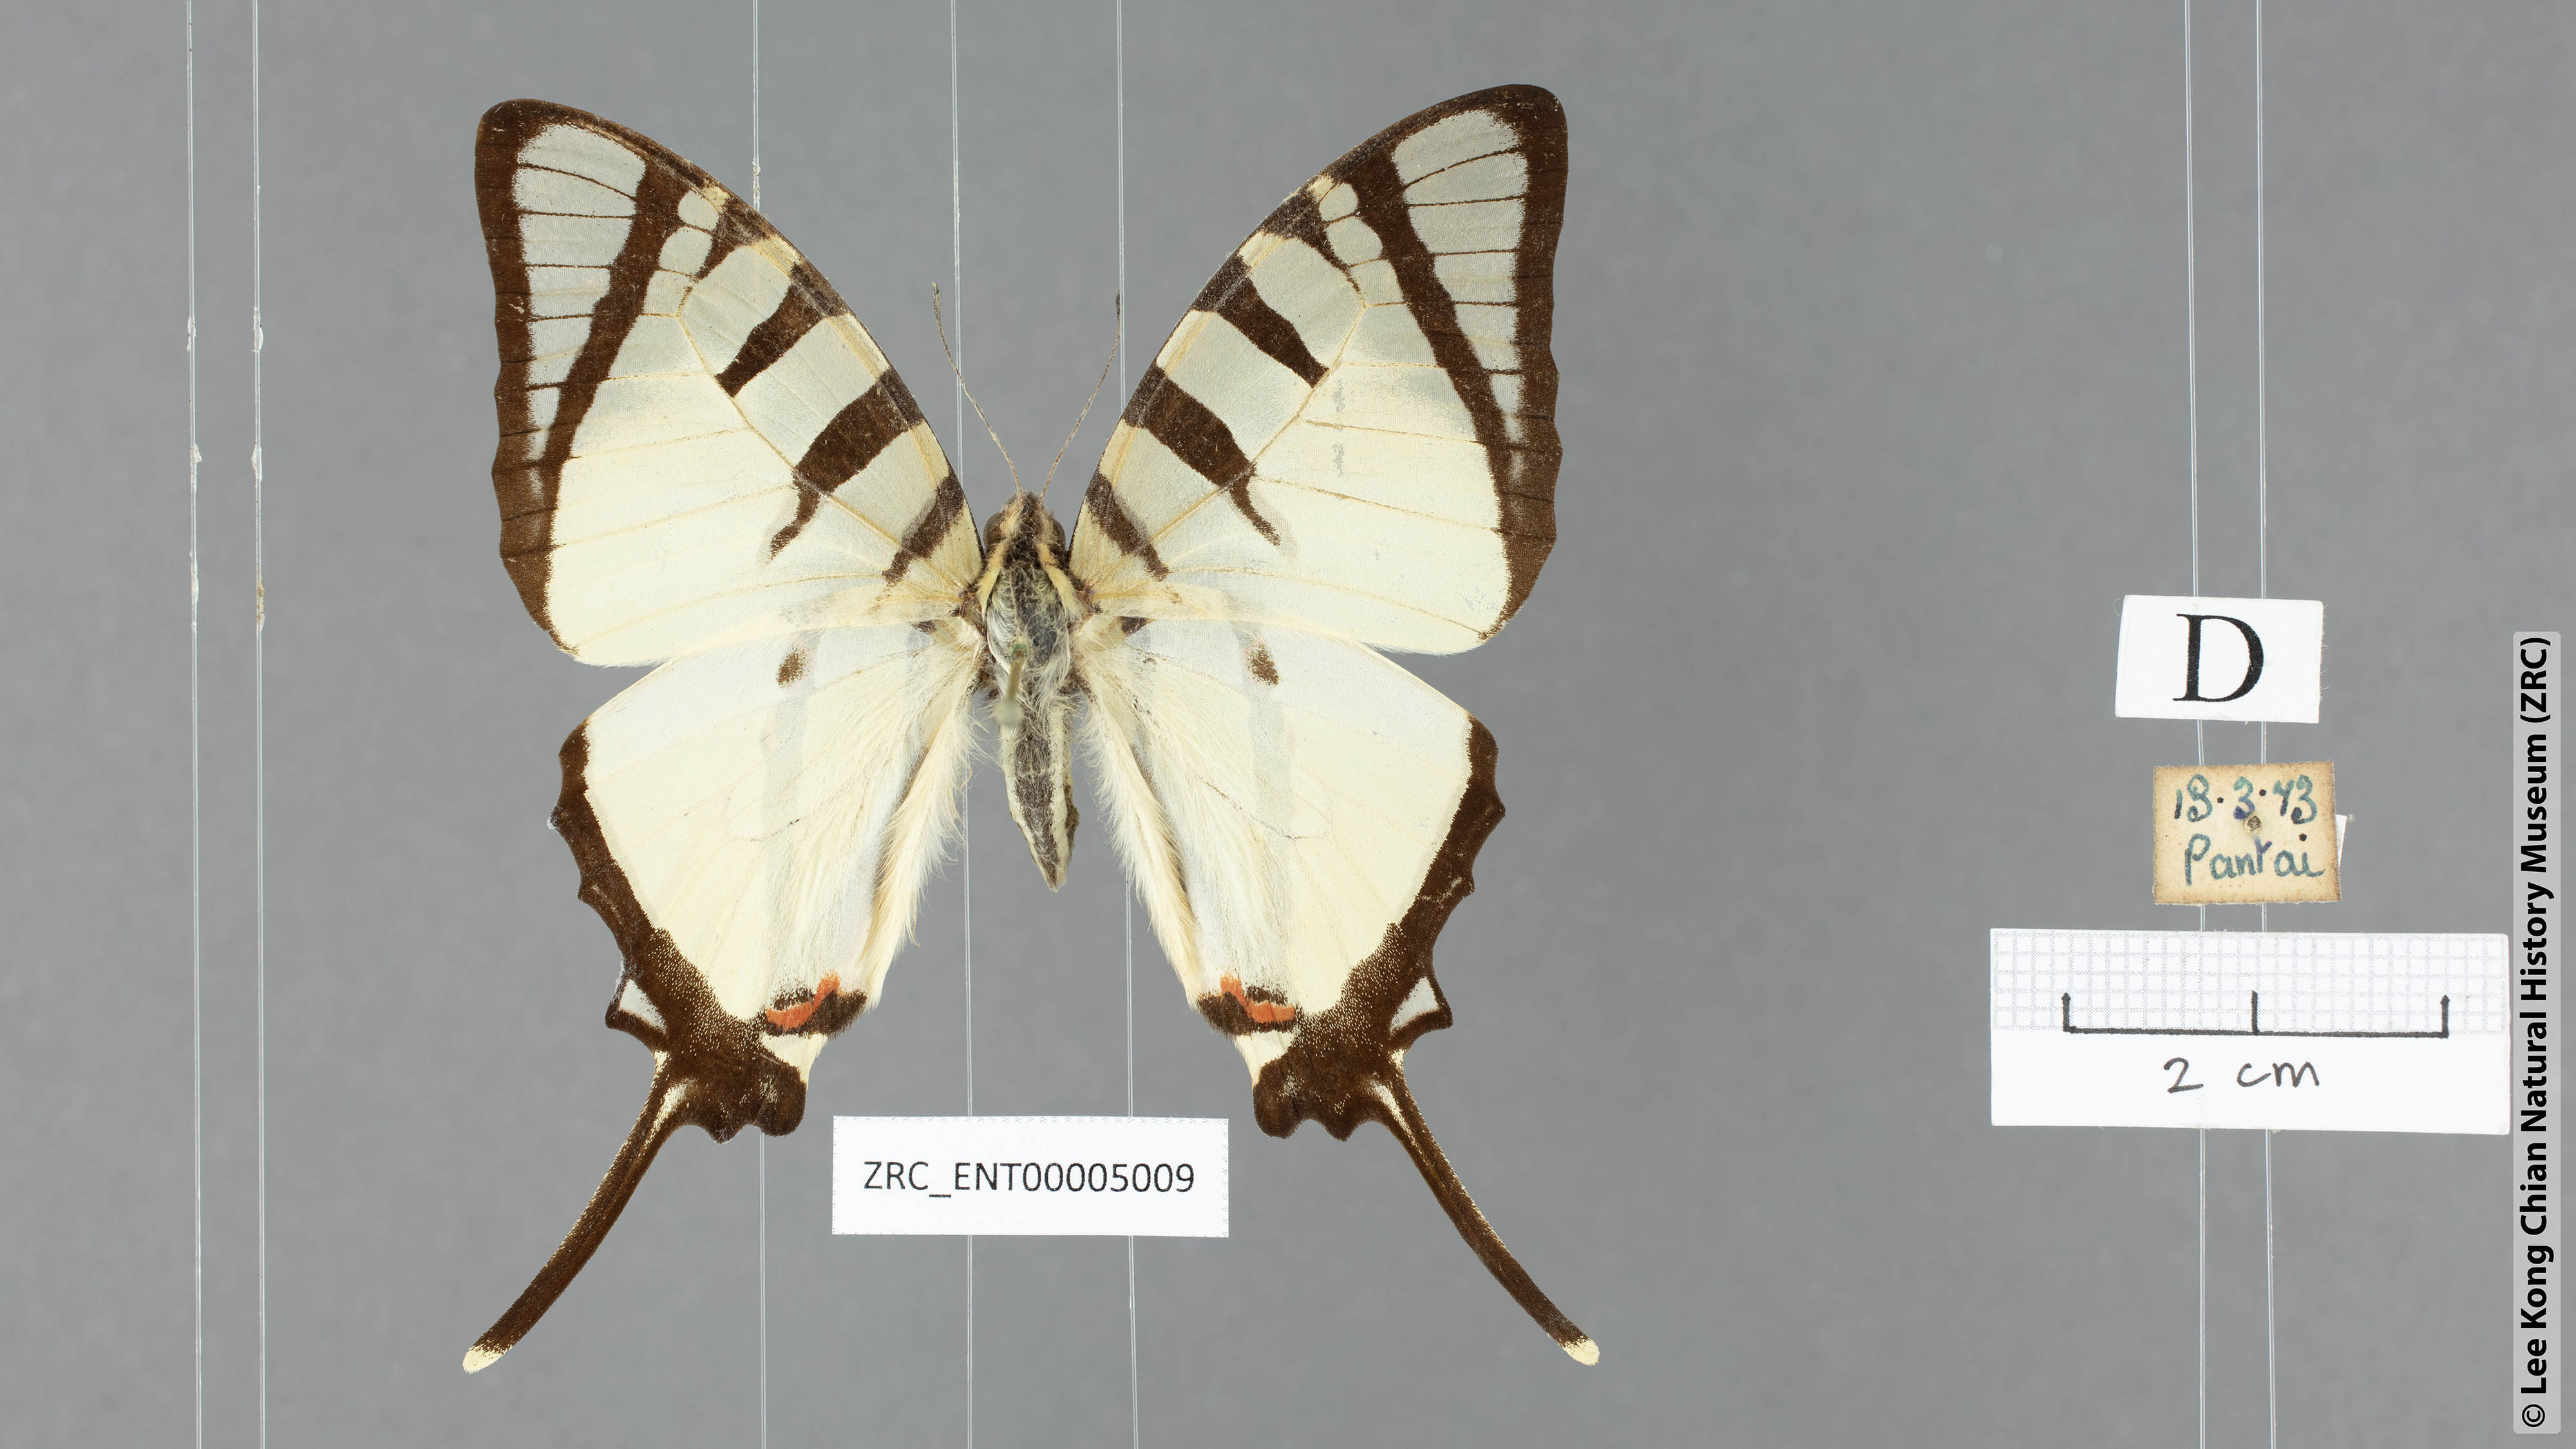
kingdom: Animalia
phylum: Arthropoda
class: Insecta
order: Lepidoptera
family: Papilionidae
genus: Graphium
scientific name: Graphium agetes
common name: Fourbar swordtail
